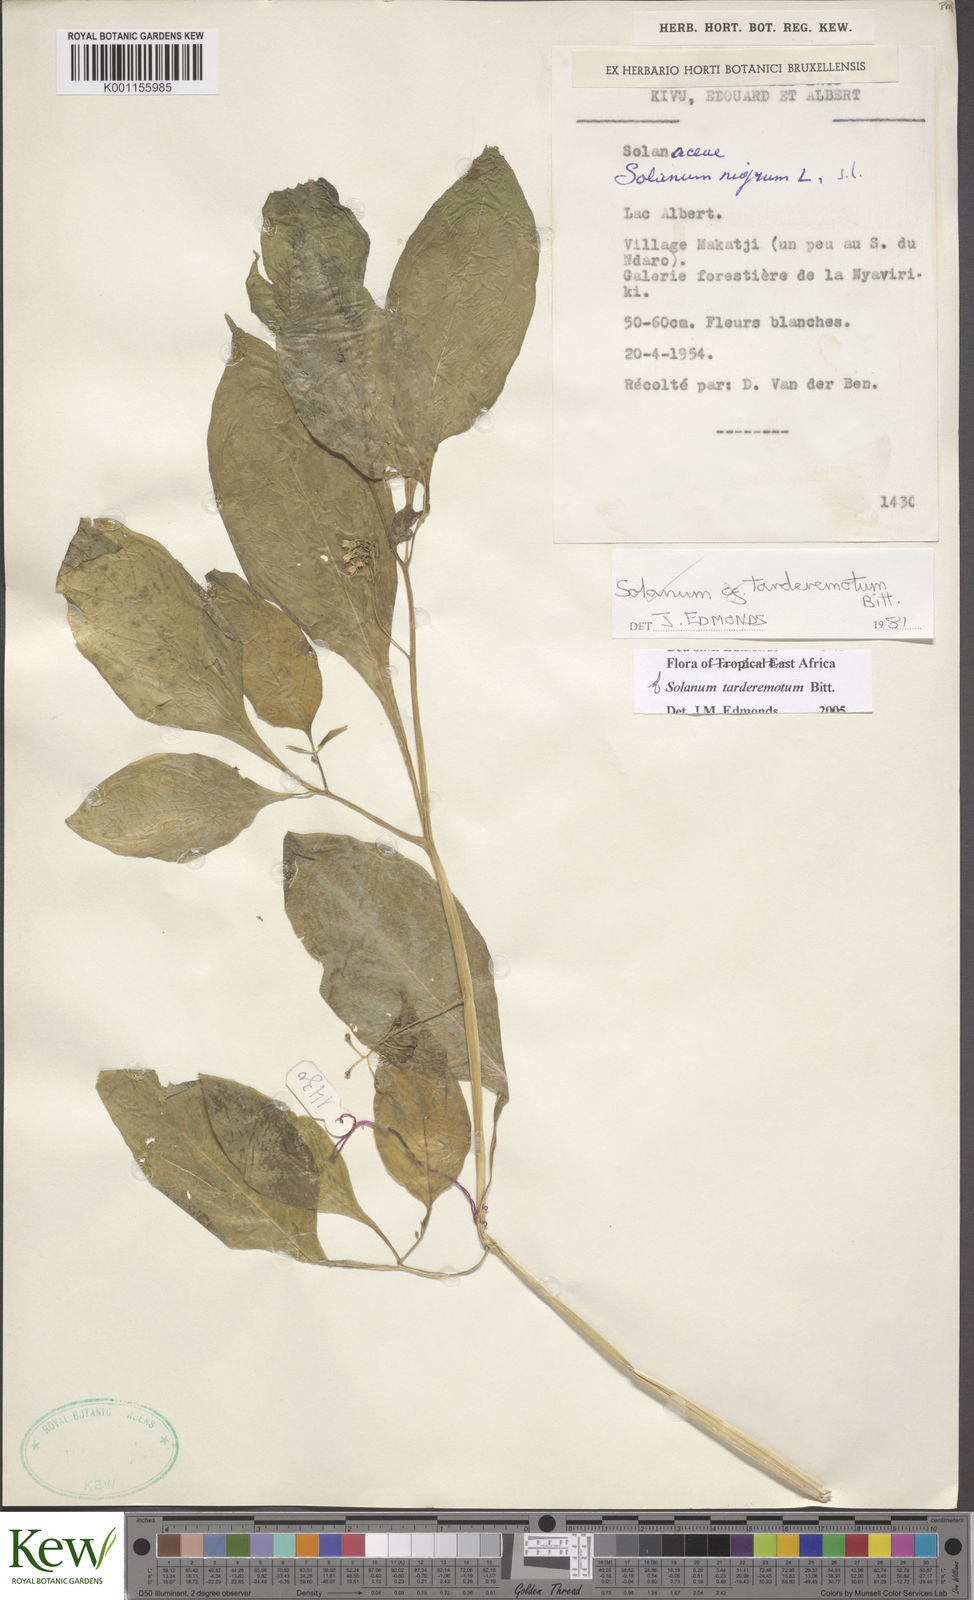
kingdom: Plantae
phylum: Tracheophyta
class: Magnoliopsida
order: Solanales
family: Solanaceae
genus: Solanum
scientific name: Solanum tarderemotum
